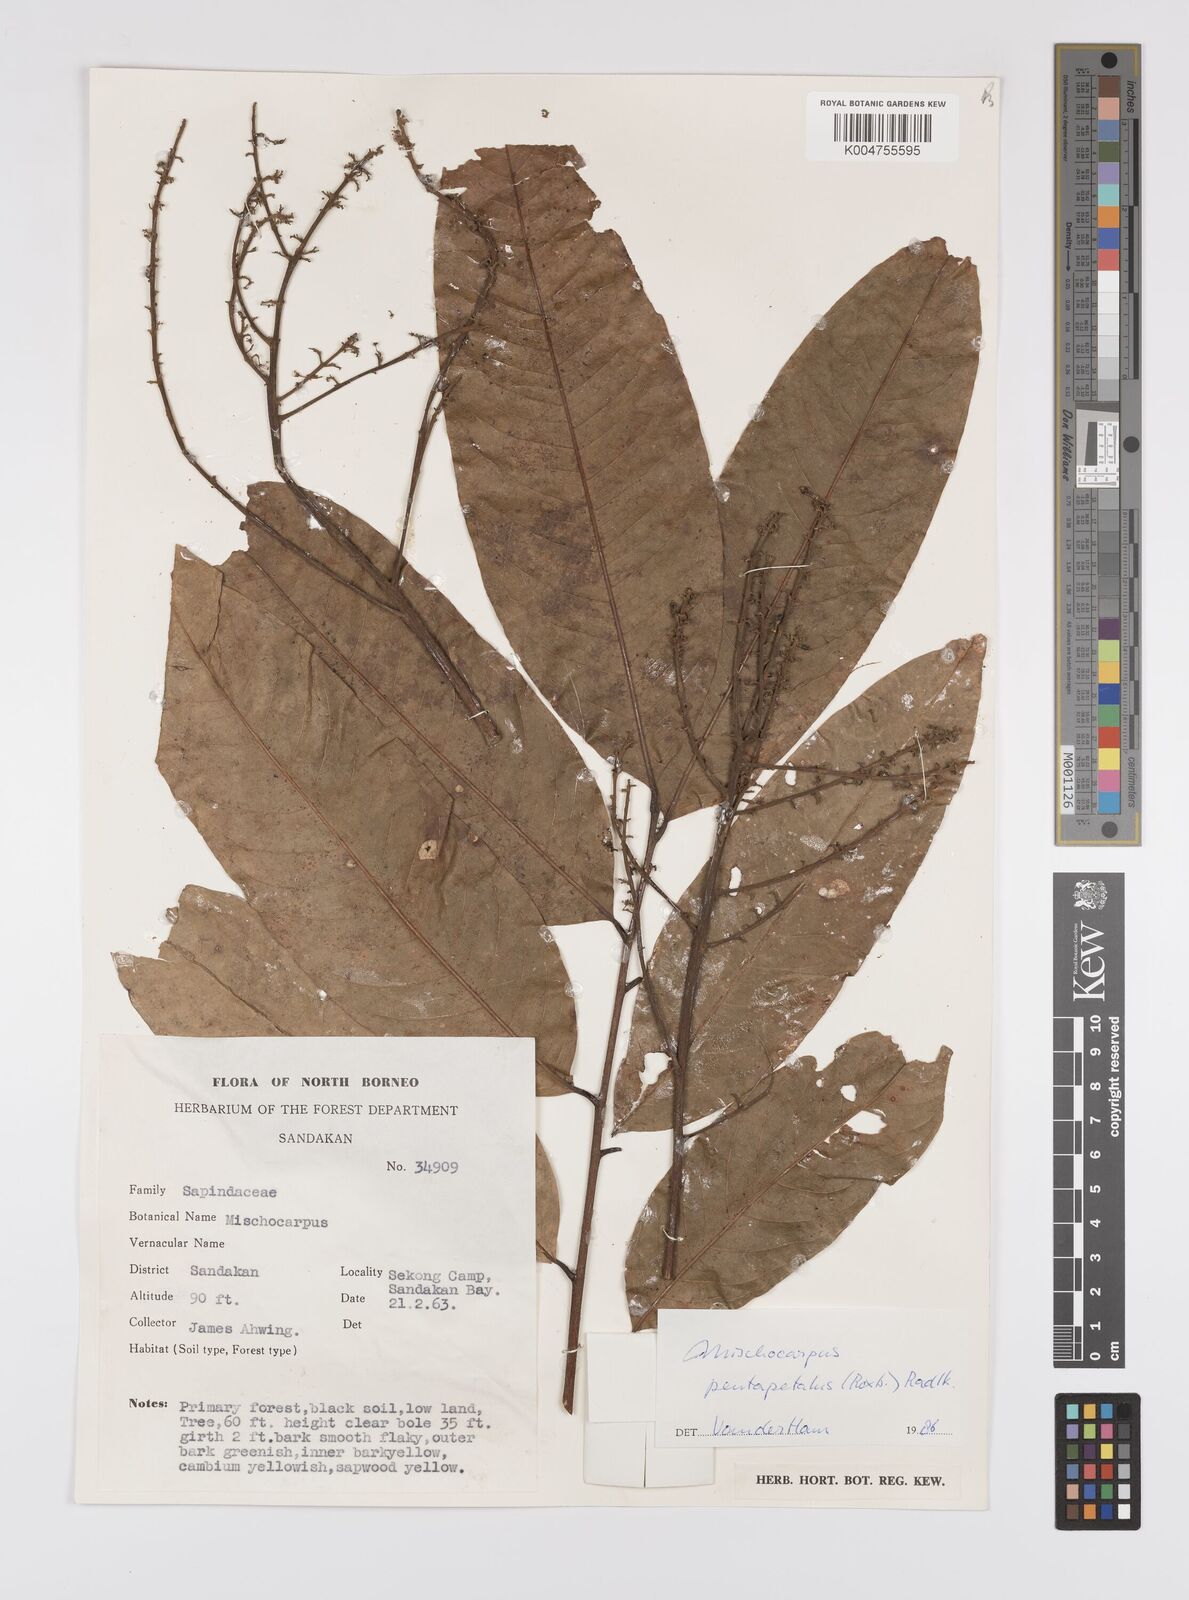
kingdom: Plantae
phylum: Tracheophyta
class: Magnoliopsida
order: Sapindales
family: Sapindaceae
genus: Mischocarpus
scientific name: Mischocarpus pentapetalus
